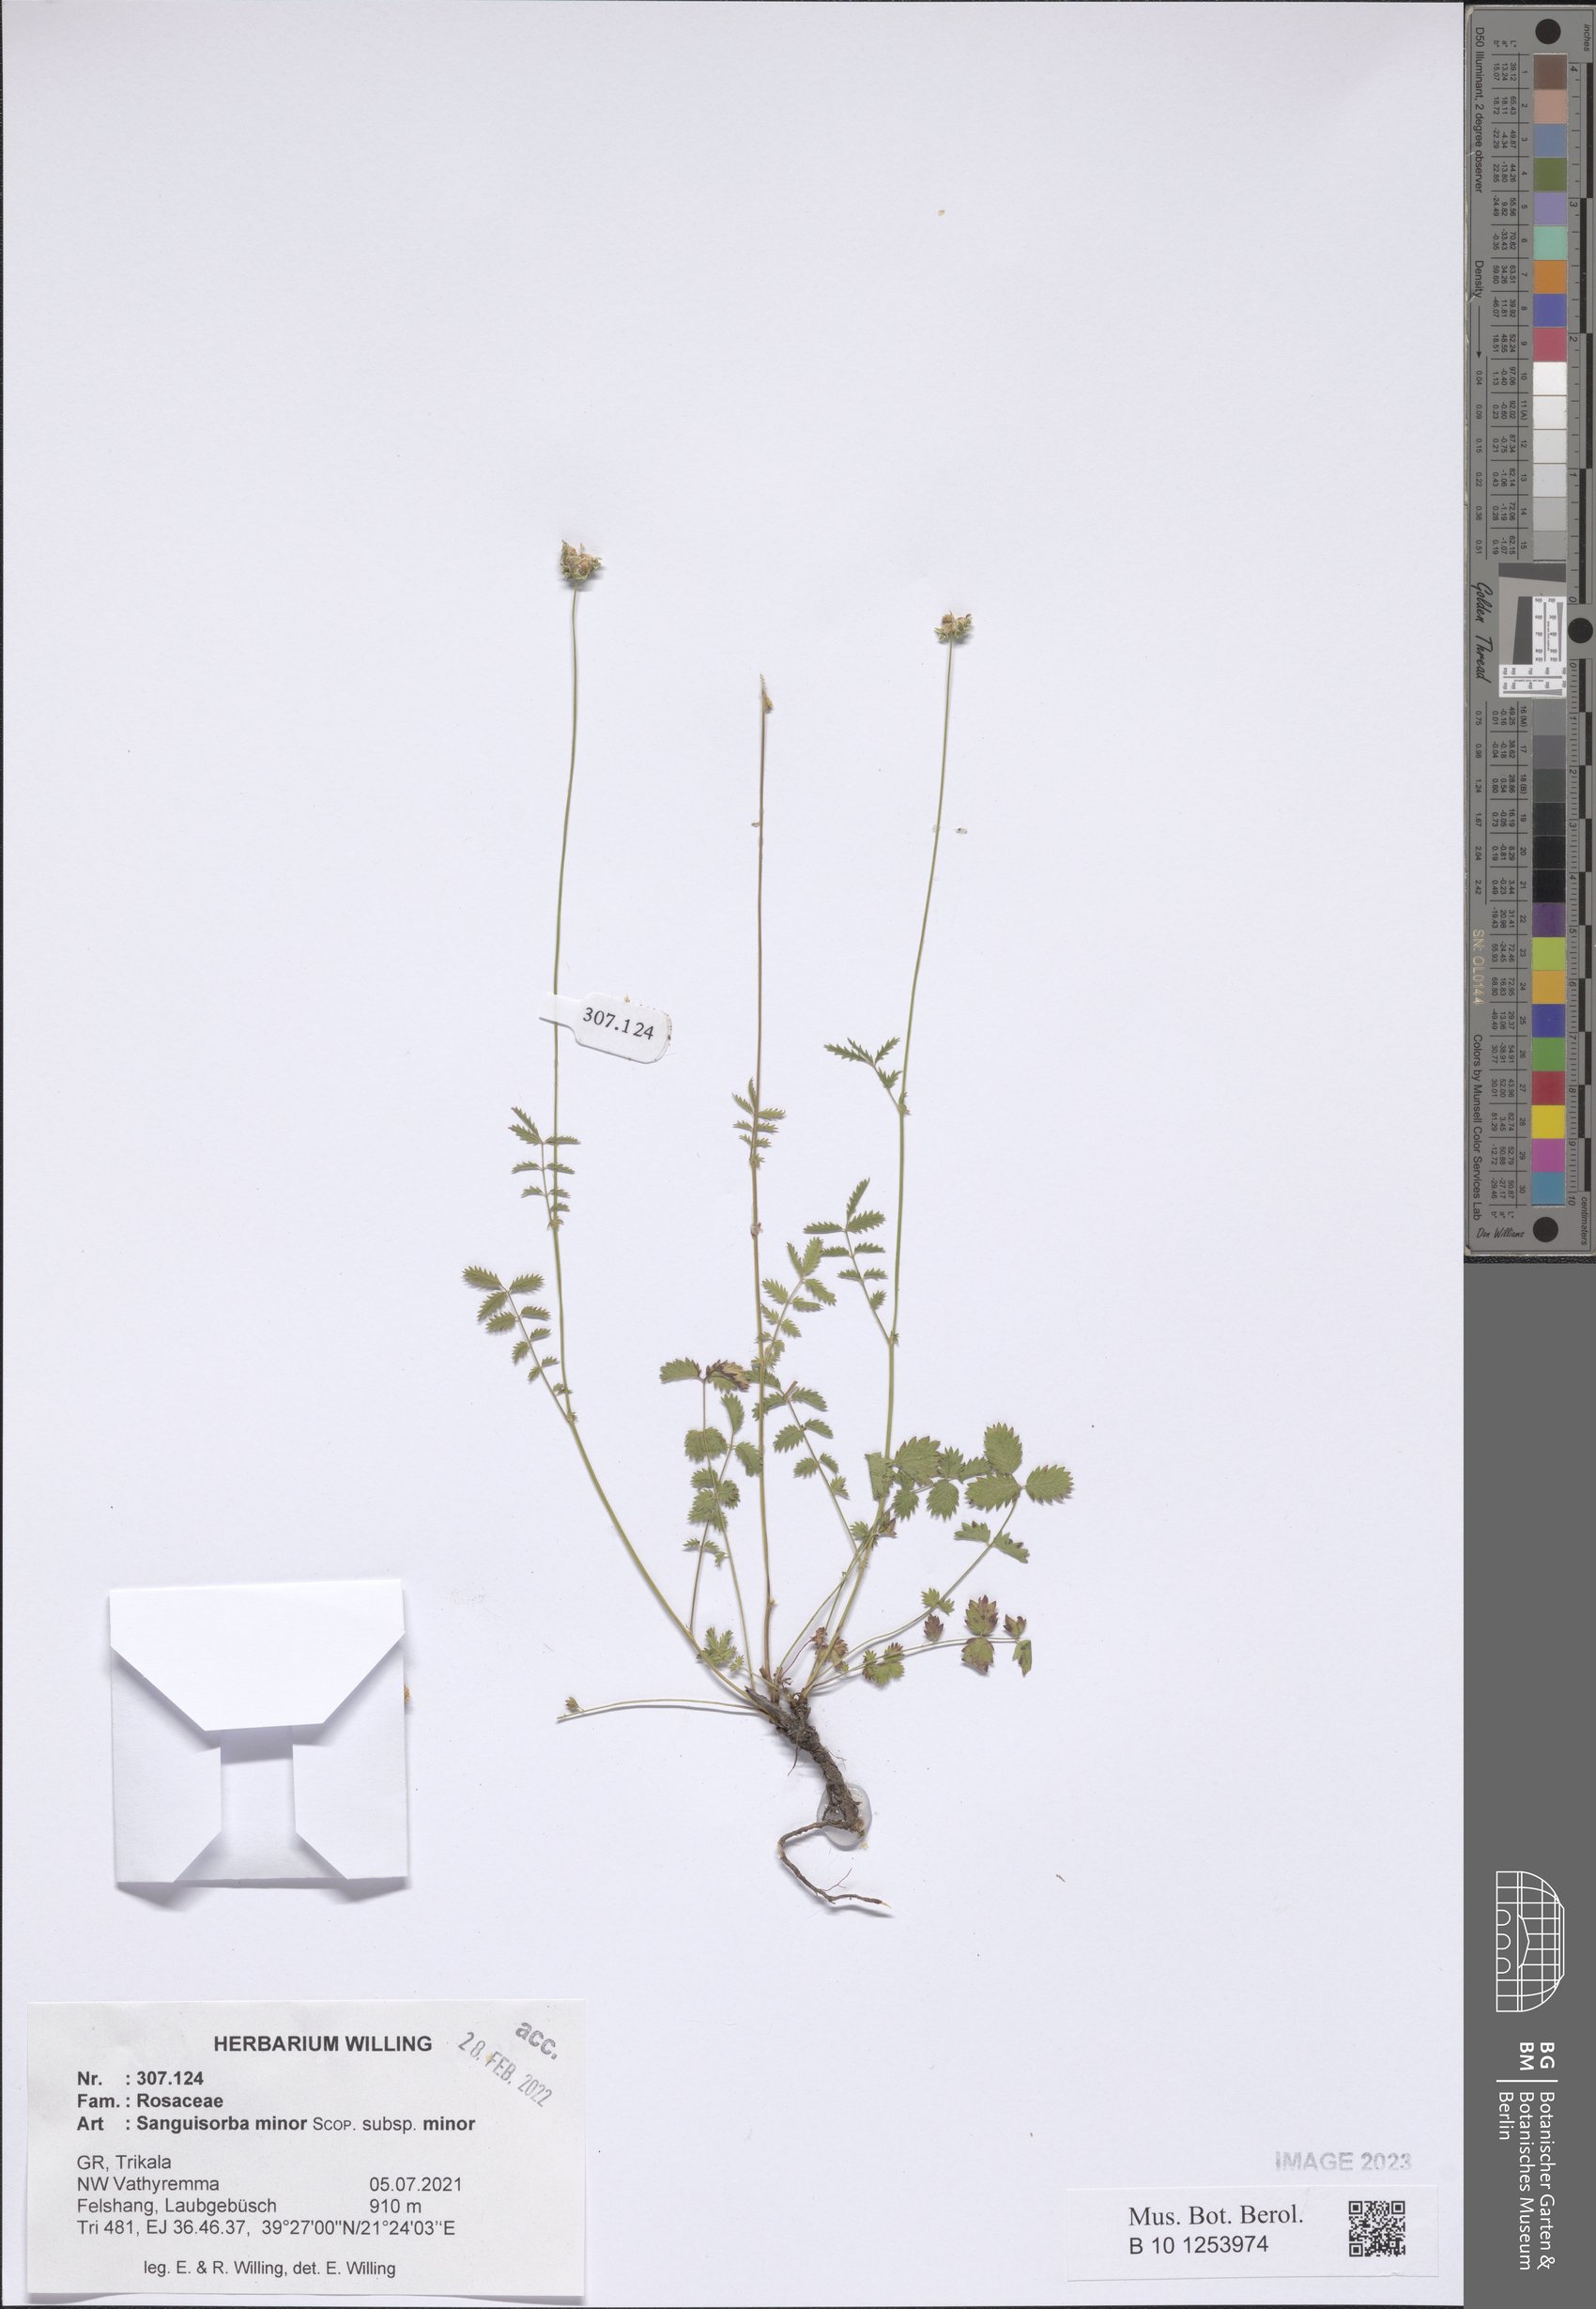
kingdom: Plantae
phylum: Tracheophyta
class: Magnoliopsida
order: Rosales
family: Rosaceae
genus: Poterium
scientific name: Poterium sanguisorba
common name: Salad burnet
